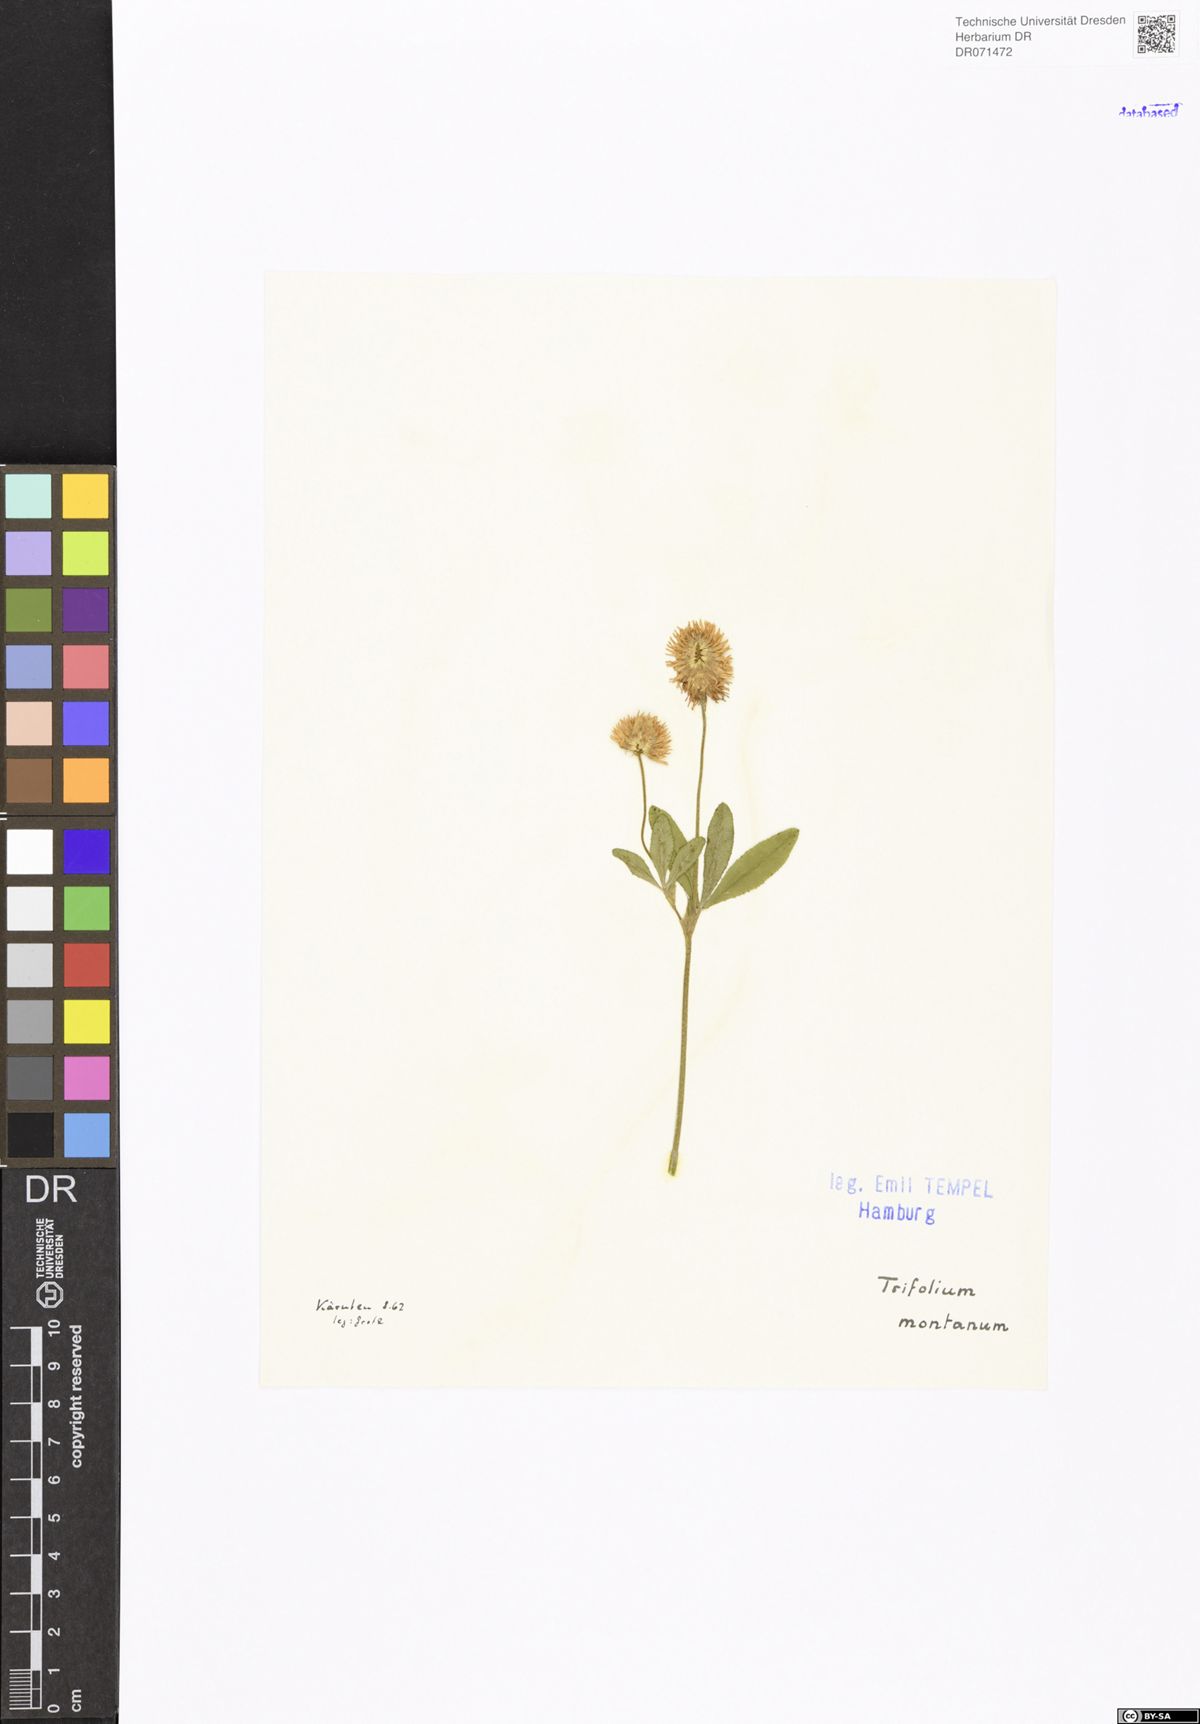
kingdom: Plantae
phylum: Tracheophyta
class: Magnoliopsida
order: Fabales
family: Fabaceae
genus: Trifolium
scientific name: Trifolium montanum
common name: Mountain clover
